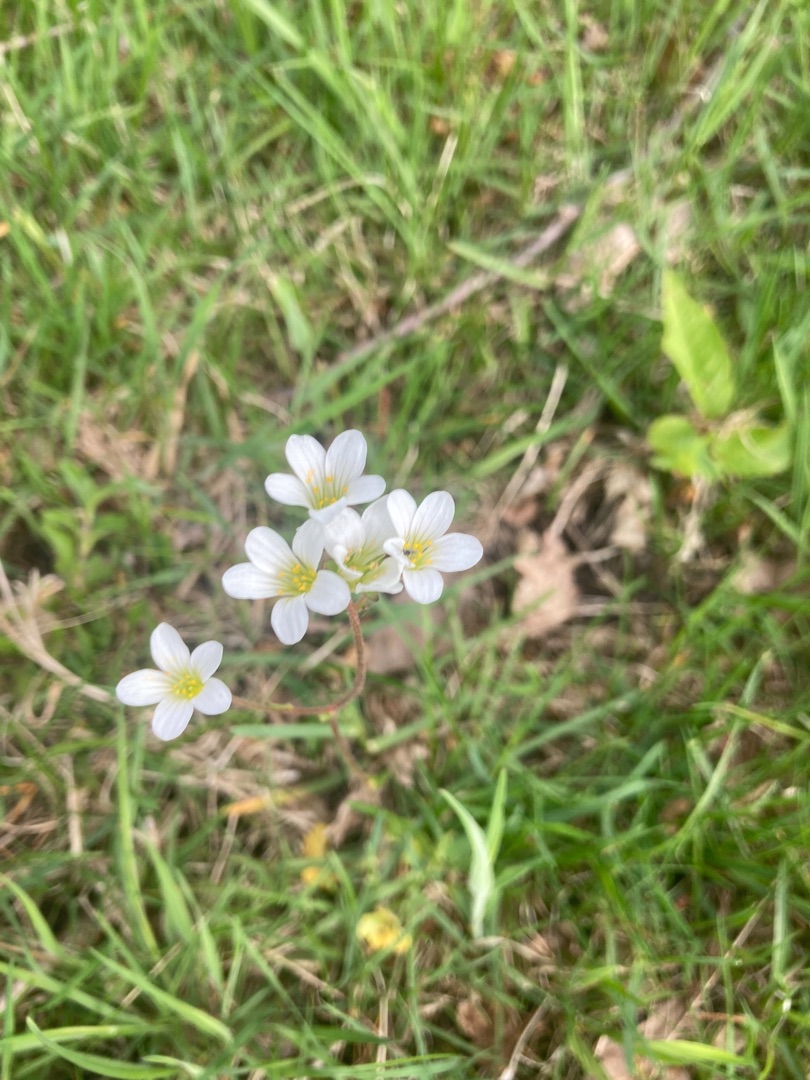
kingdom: Plantae
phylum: Tracheophyta
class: Magnoliopsida
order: Saxifragales
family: Saxifragaceae
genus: Saxifraga
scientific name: Saxifraga granulata
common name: Kornet stenbræk
